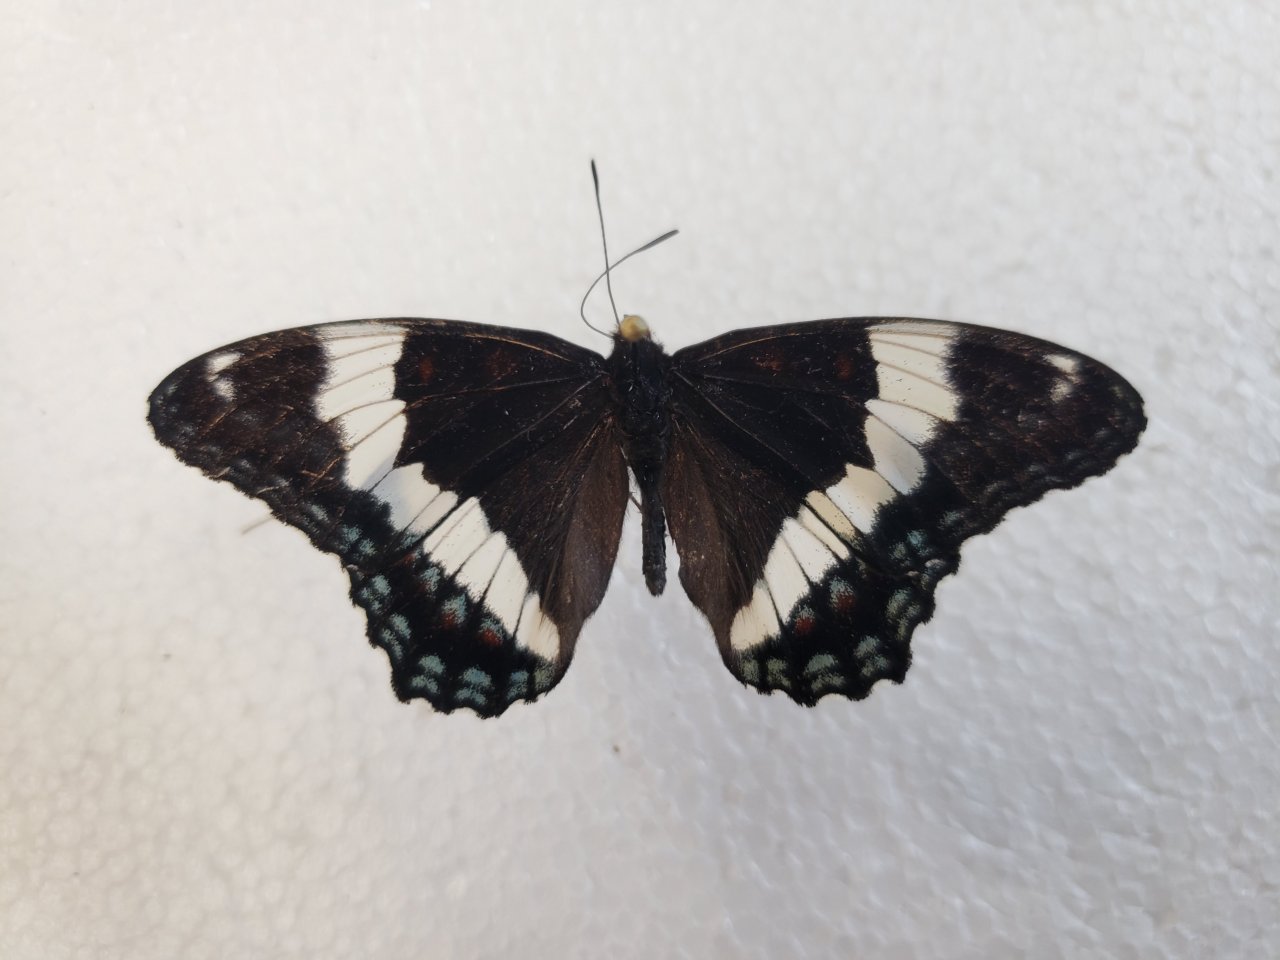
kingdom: Animalia
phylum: Arthropoda
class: Insecta
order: Lepidoptera
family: Nymphalidae
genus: Limenitis
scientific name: Limenitis arthemis
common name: Red-spotted Admiral
